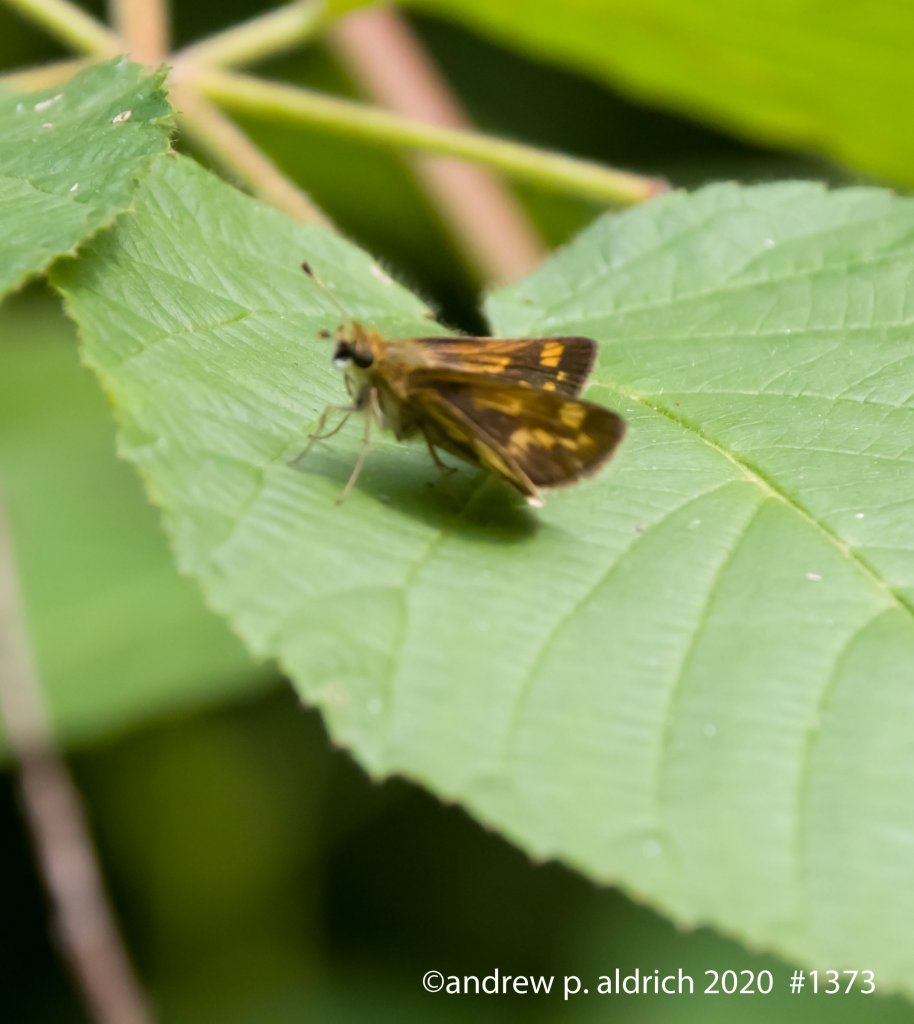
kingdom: Animalia
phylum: Arthropoda
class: Insecta
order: Lepidoptera
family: Hesperiidae
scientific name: Hesperiidae
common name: Skippers
